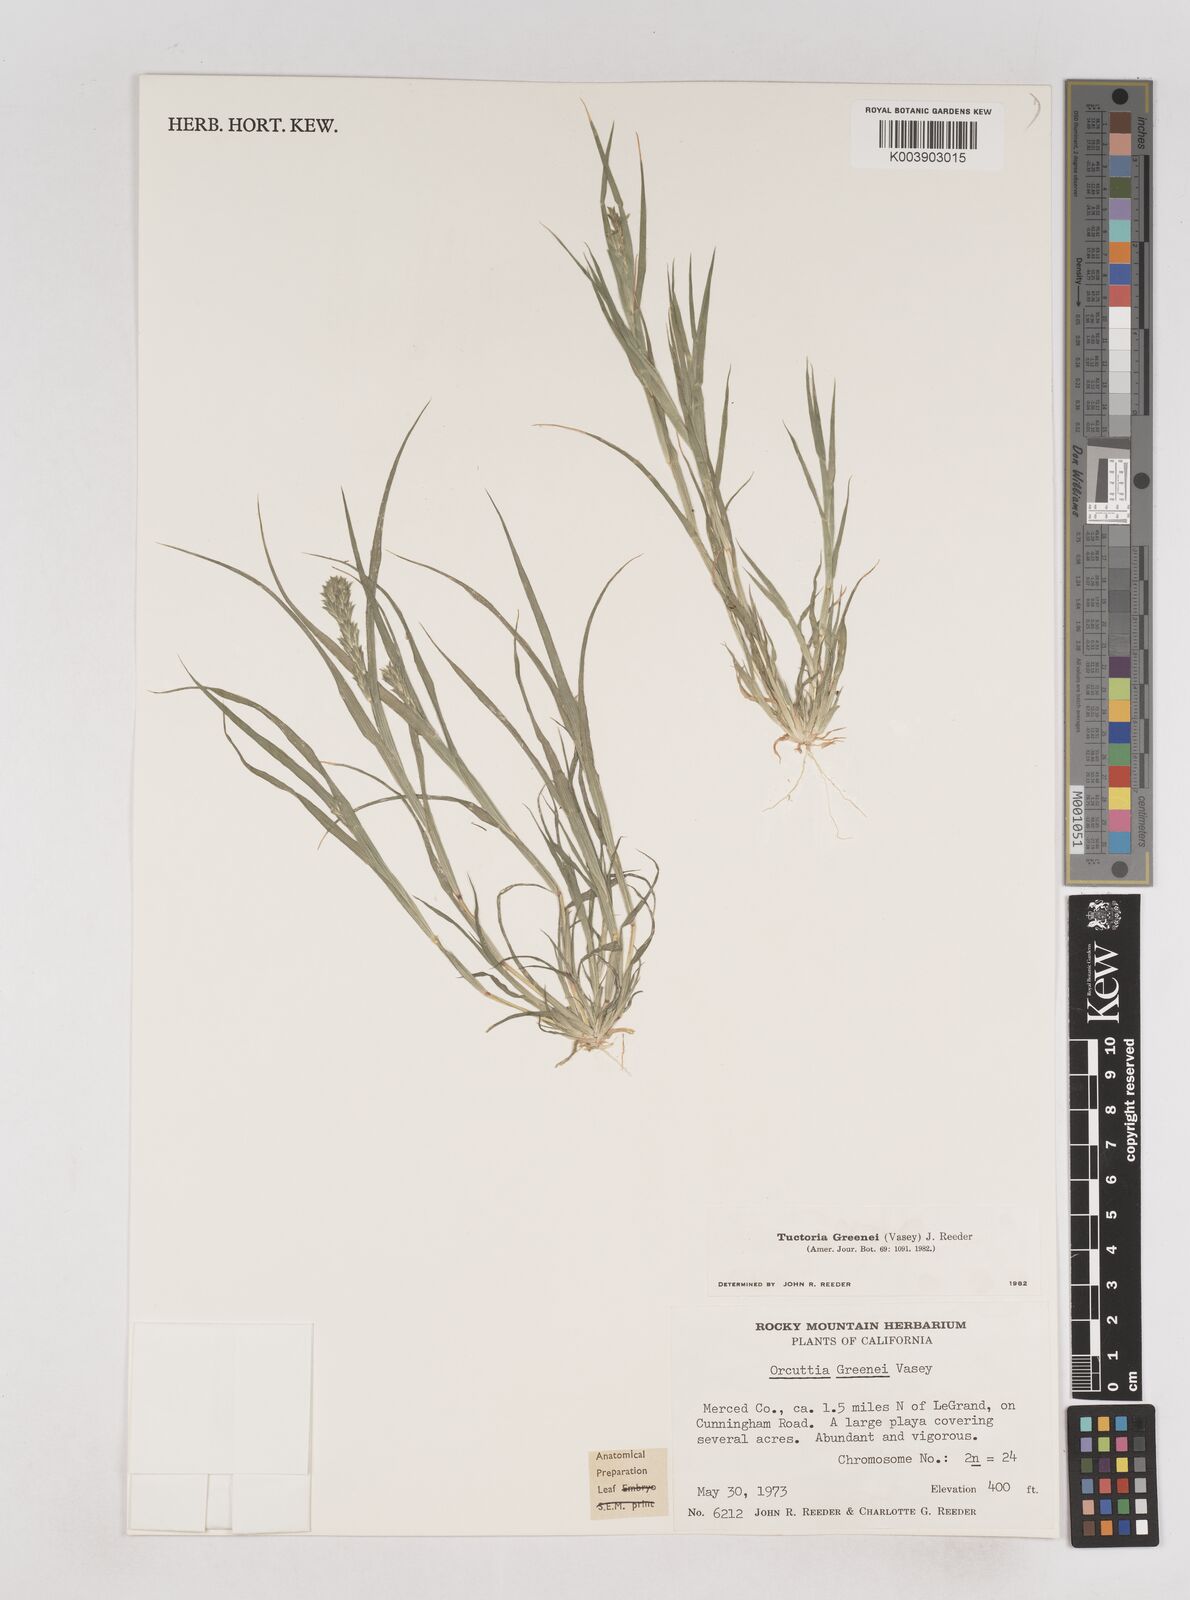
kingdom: Plantae
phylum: Tracheophyta
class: Liliopsida
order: Poales
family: Poaceae
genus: Tuctoria
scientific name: Tuctoria greenei
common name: Awnless spiral grass
